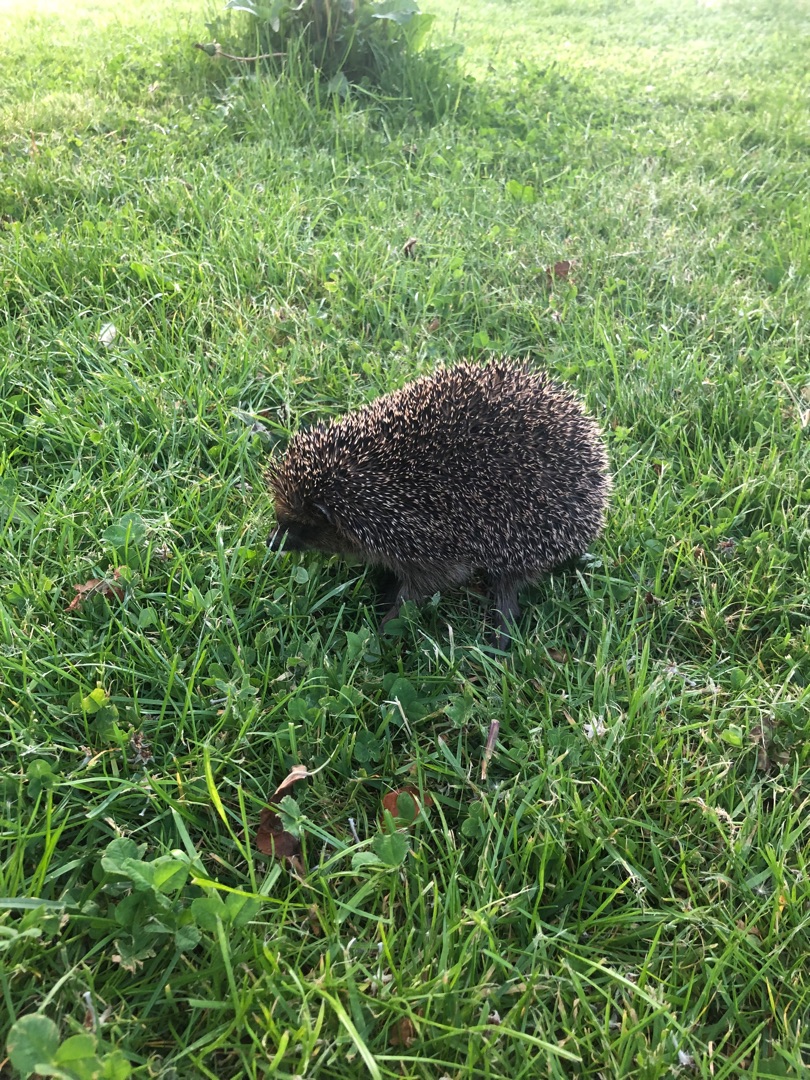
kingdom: Animalia
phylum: Chordata
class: Mammalia
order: Erinaceomorpha
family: Erinaceidae
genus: Erinaceus
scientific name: Erinaceus europaeus
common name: Pindsvin
